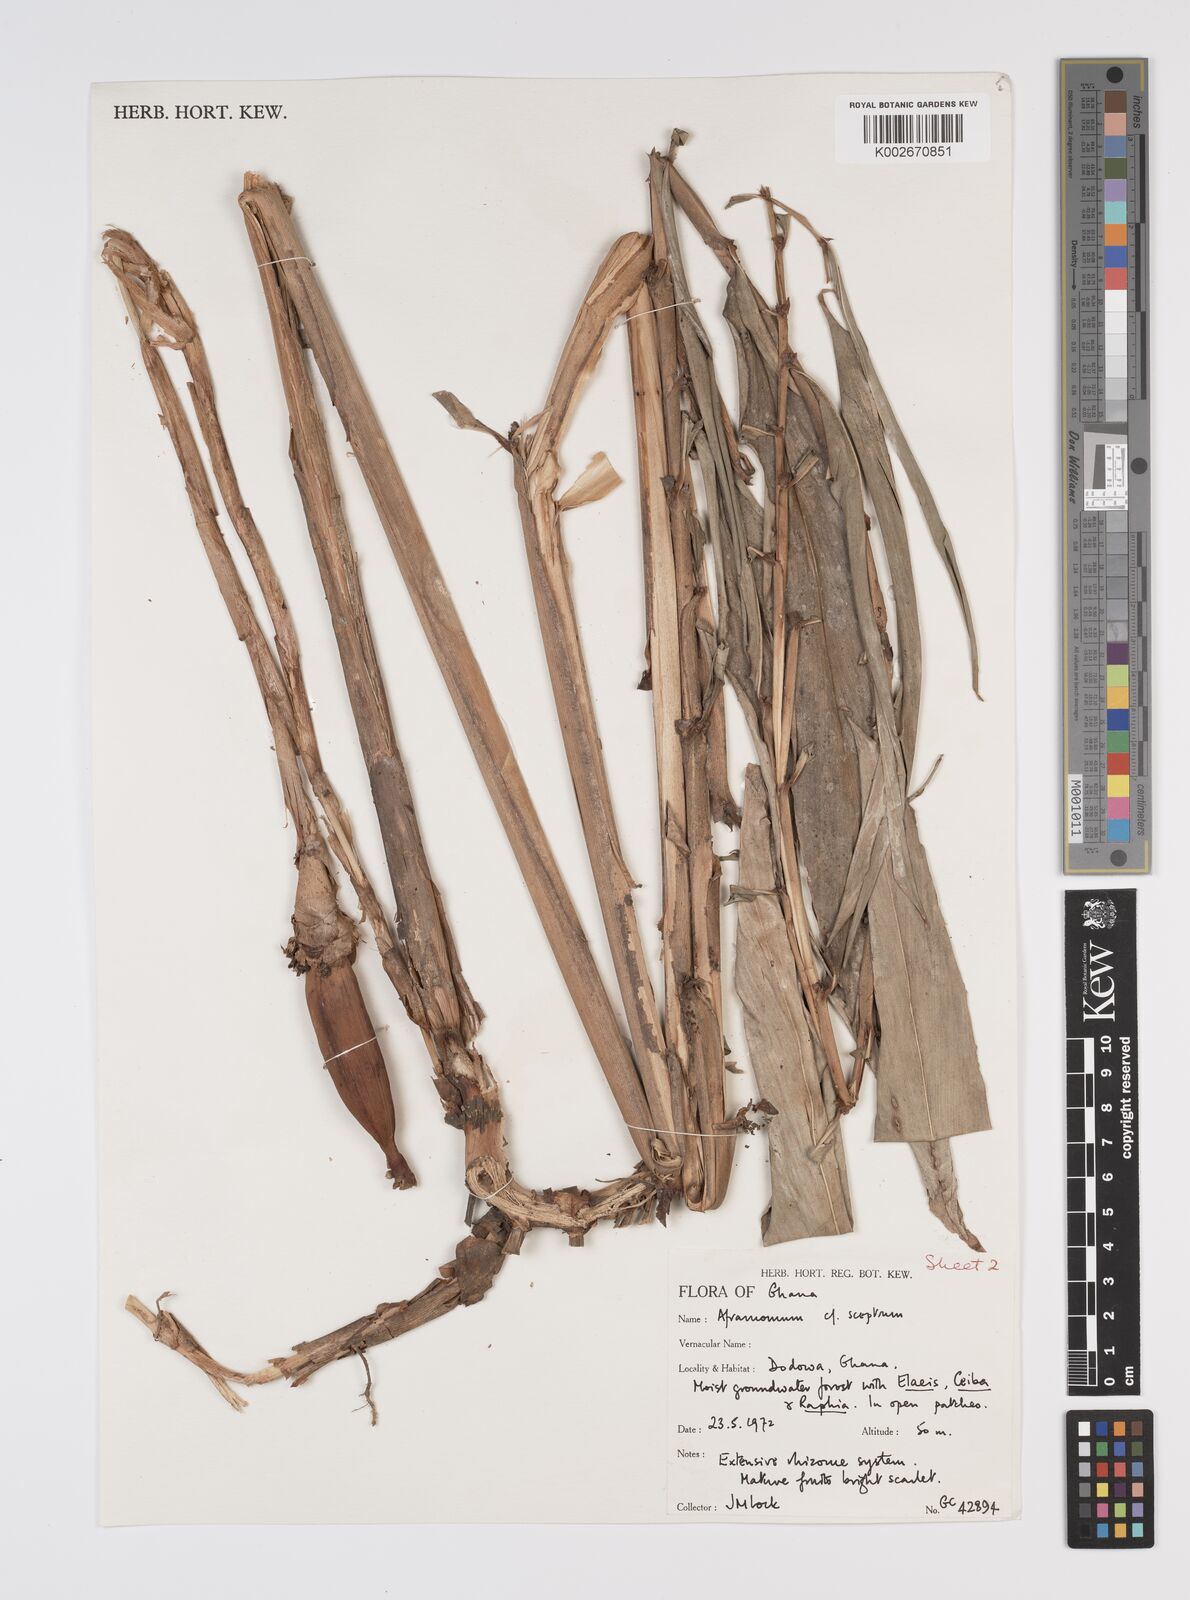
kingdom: Plantae
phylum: Tracheophyta
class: Liliopsida
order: Zingiberales
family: Zingiberaceae
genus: Aframomum
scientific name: Aframomum cereum
